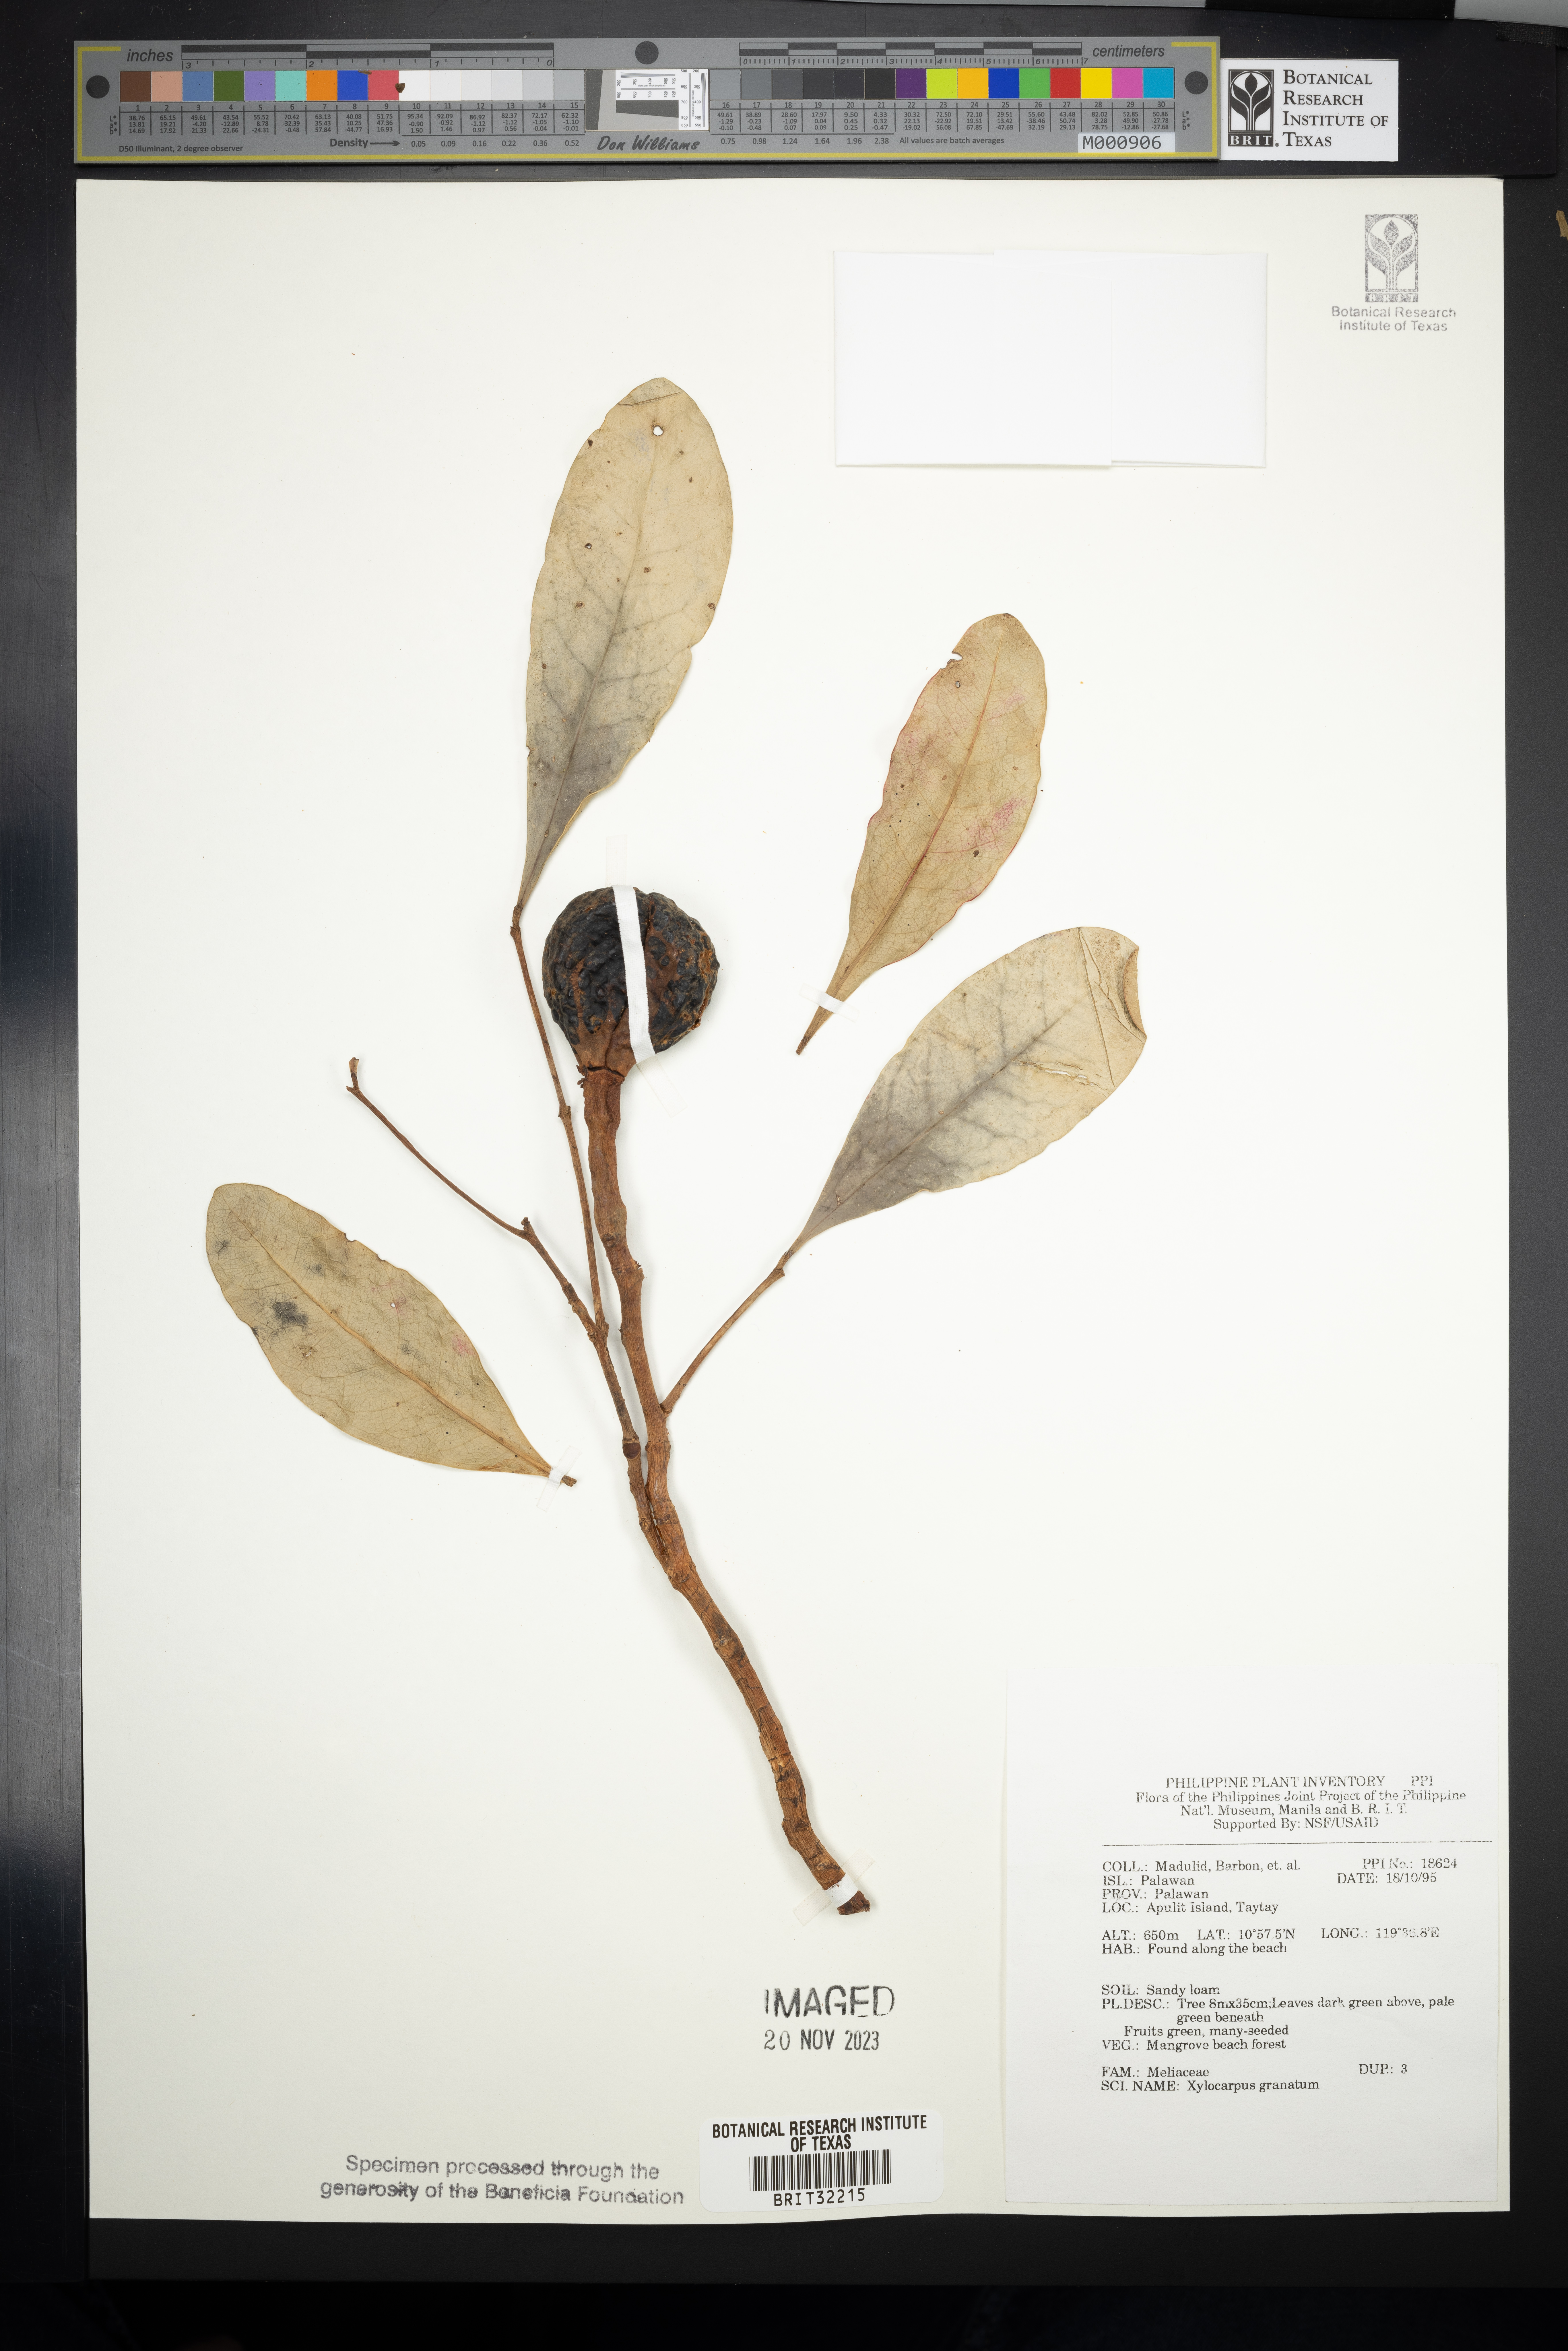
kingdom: Plantae
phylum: Tracheophyta
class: Magnoliopsida
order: Sapindales
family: Meliaceae
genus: Xylocarpus
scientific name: Xylocarpus granatum
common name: Apple mangrove
